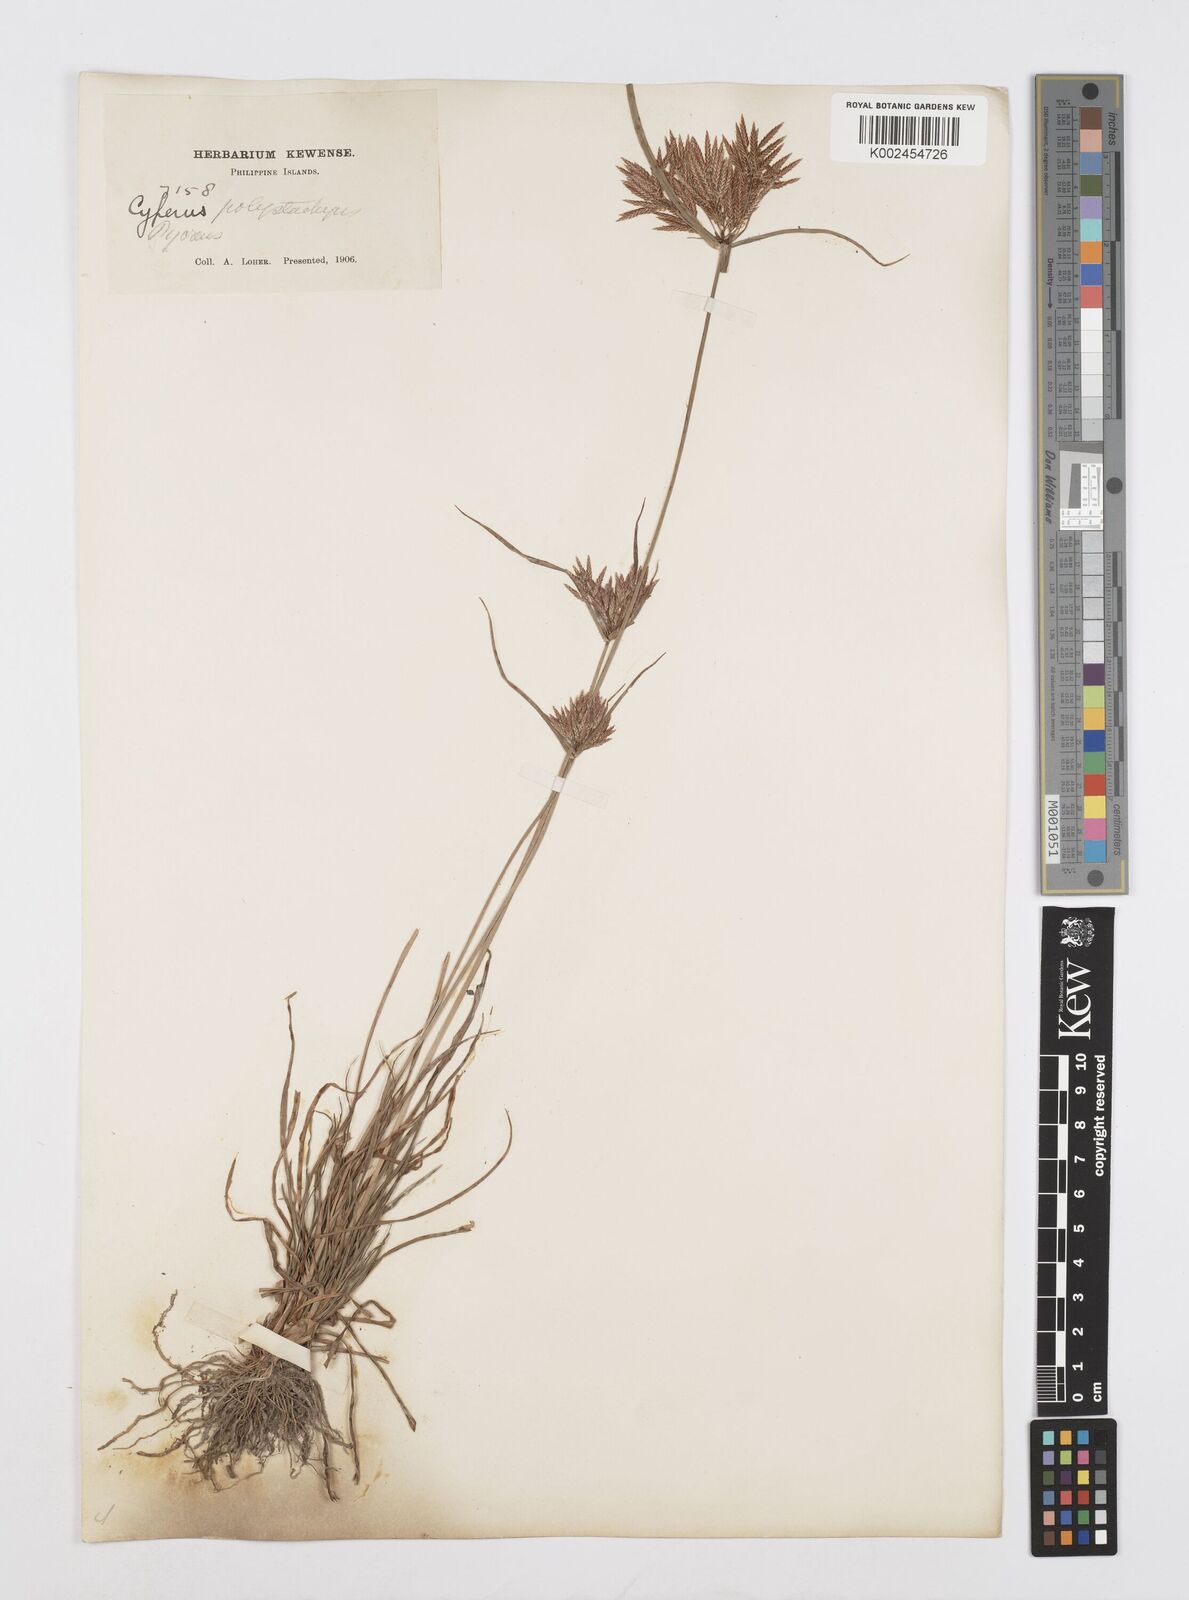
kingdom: Plantae
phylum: Tracheophyta
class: Liliopsida
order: Poales
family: Cyperaceae
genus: Cyperus
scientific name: Cyperus polystachyos
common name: Bunchy flat sedge
